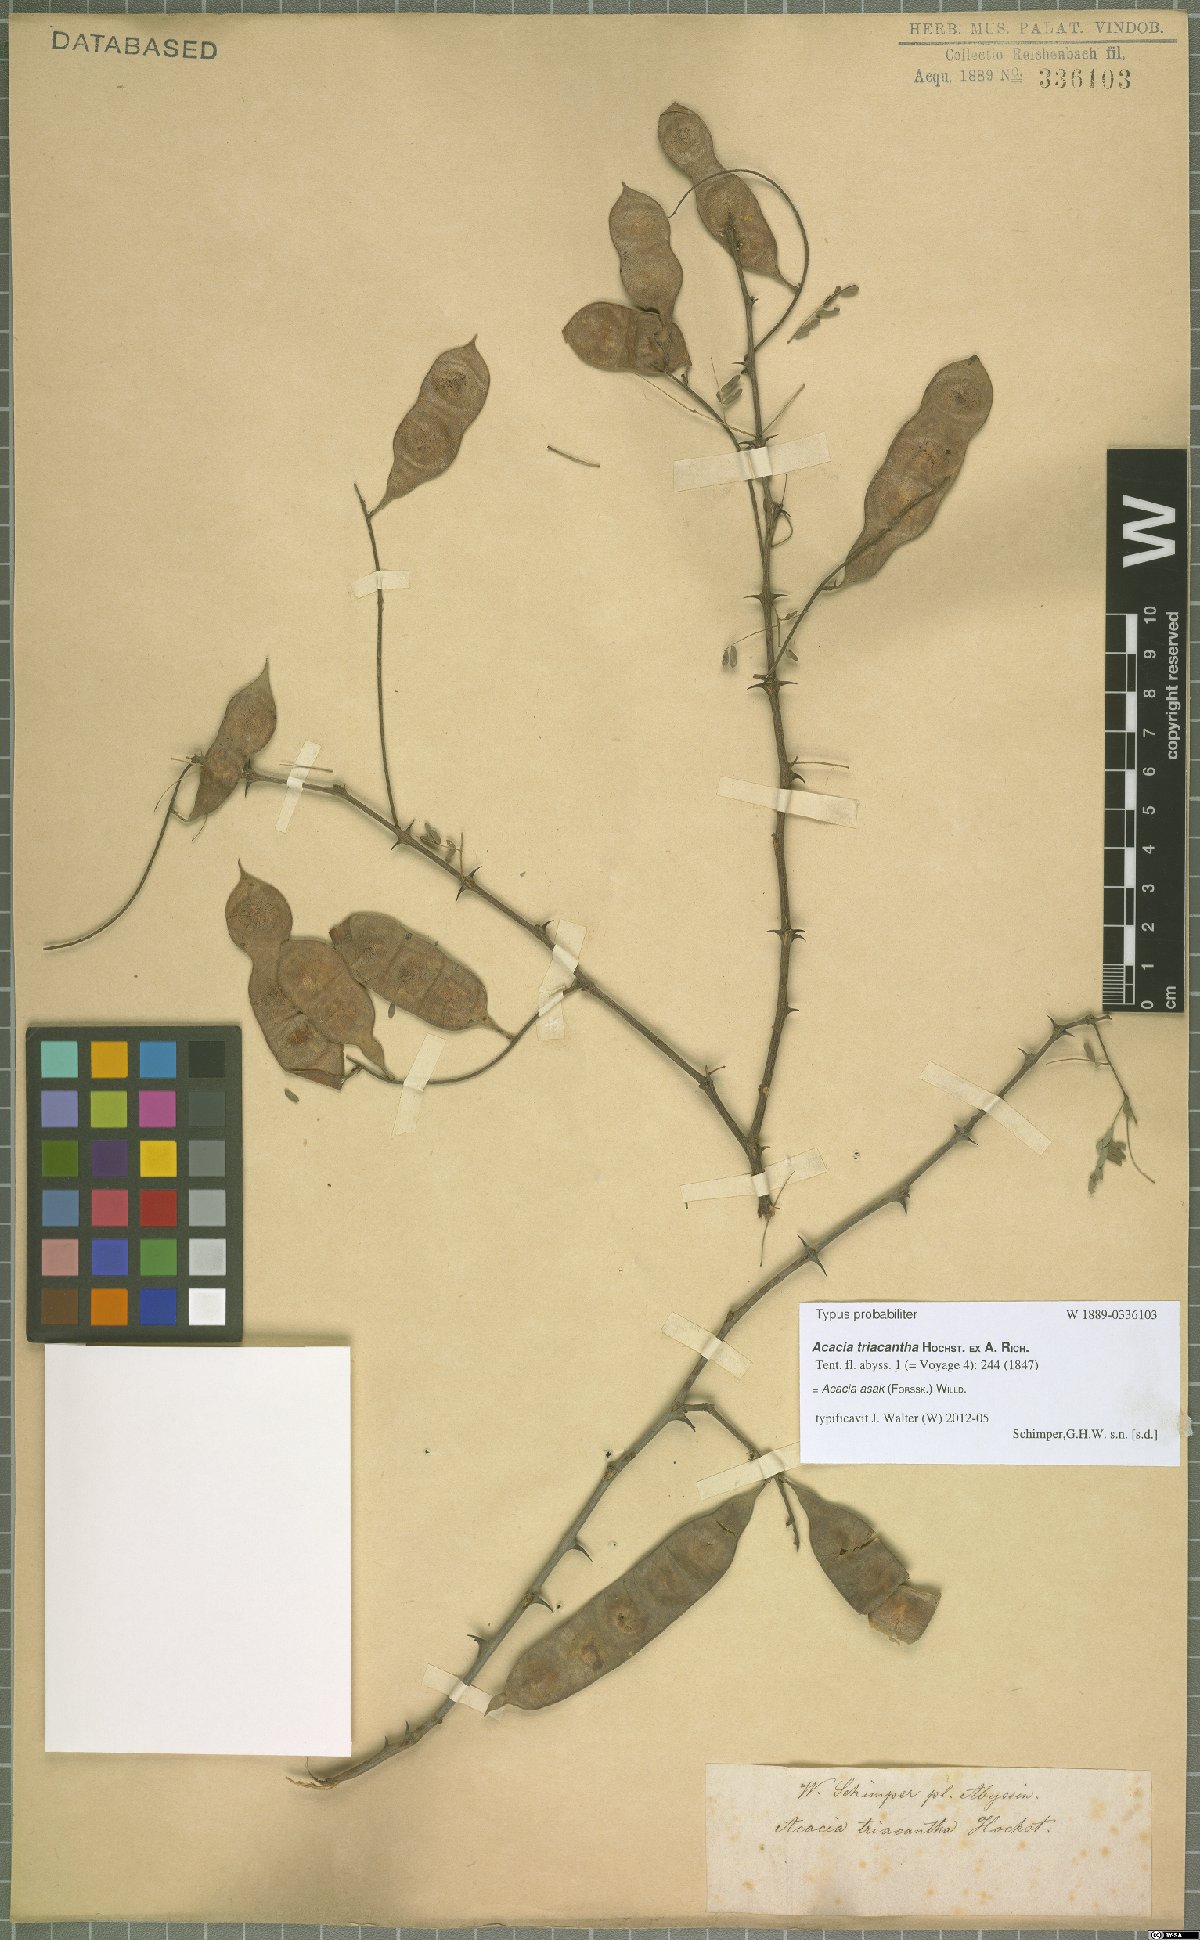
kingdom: Plantae
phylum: Tracheophyta
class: Magnoliopsida
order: Fabales
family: Fabaceae
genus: Senegalia
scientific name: Senegalia asak
